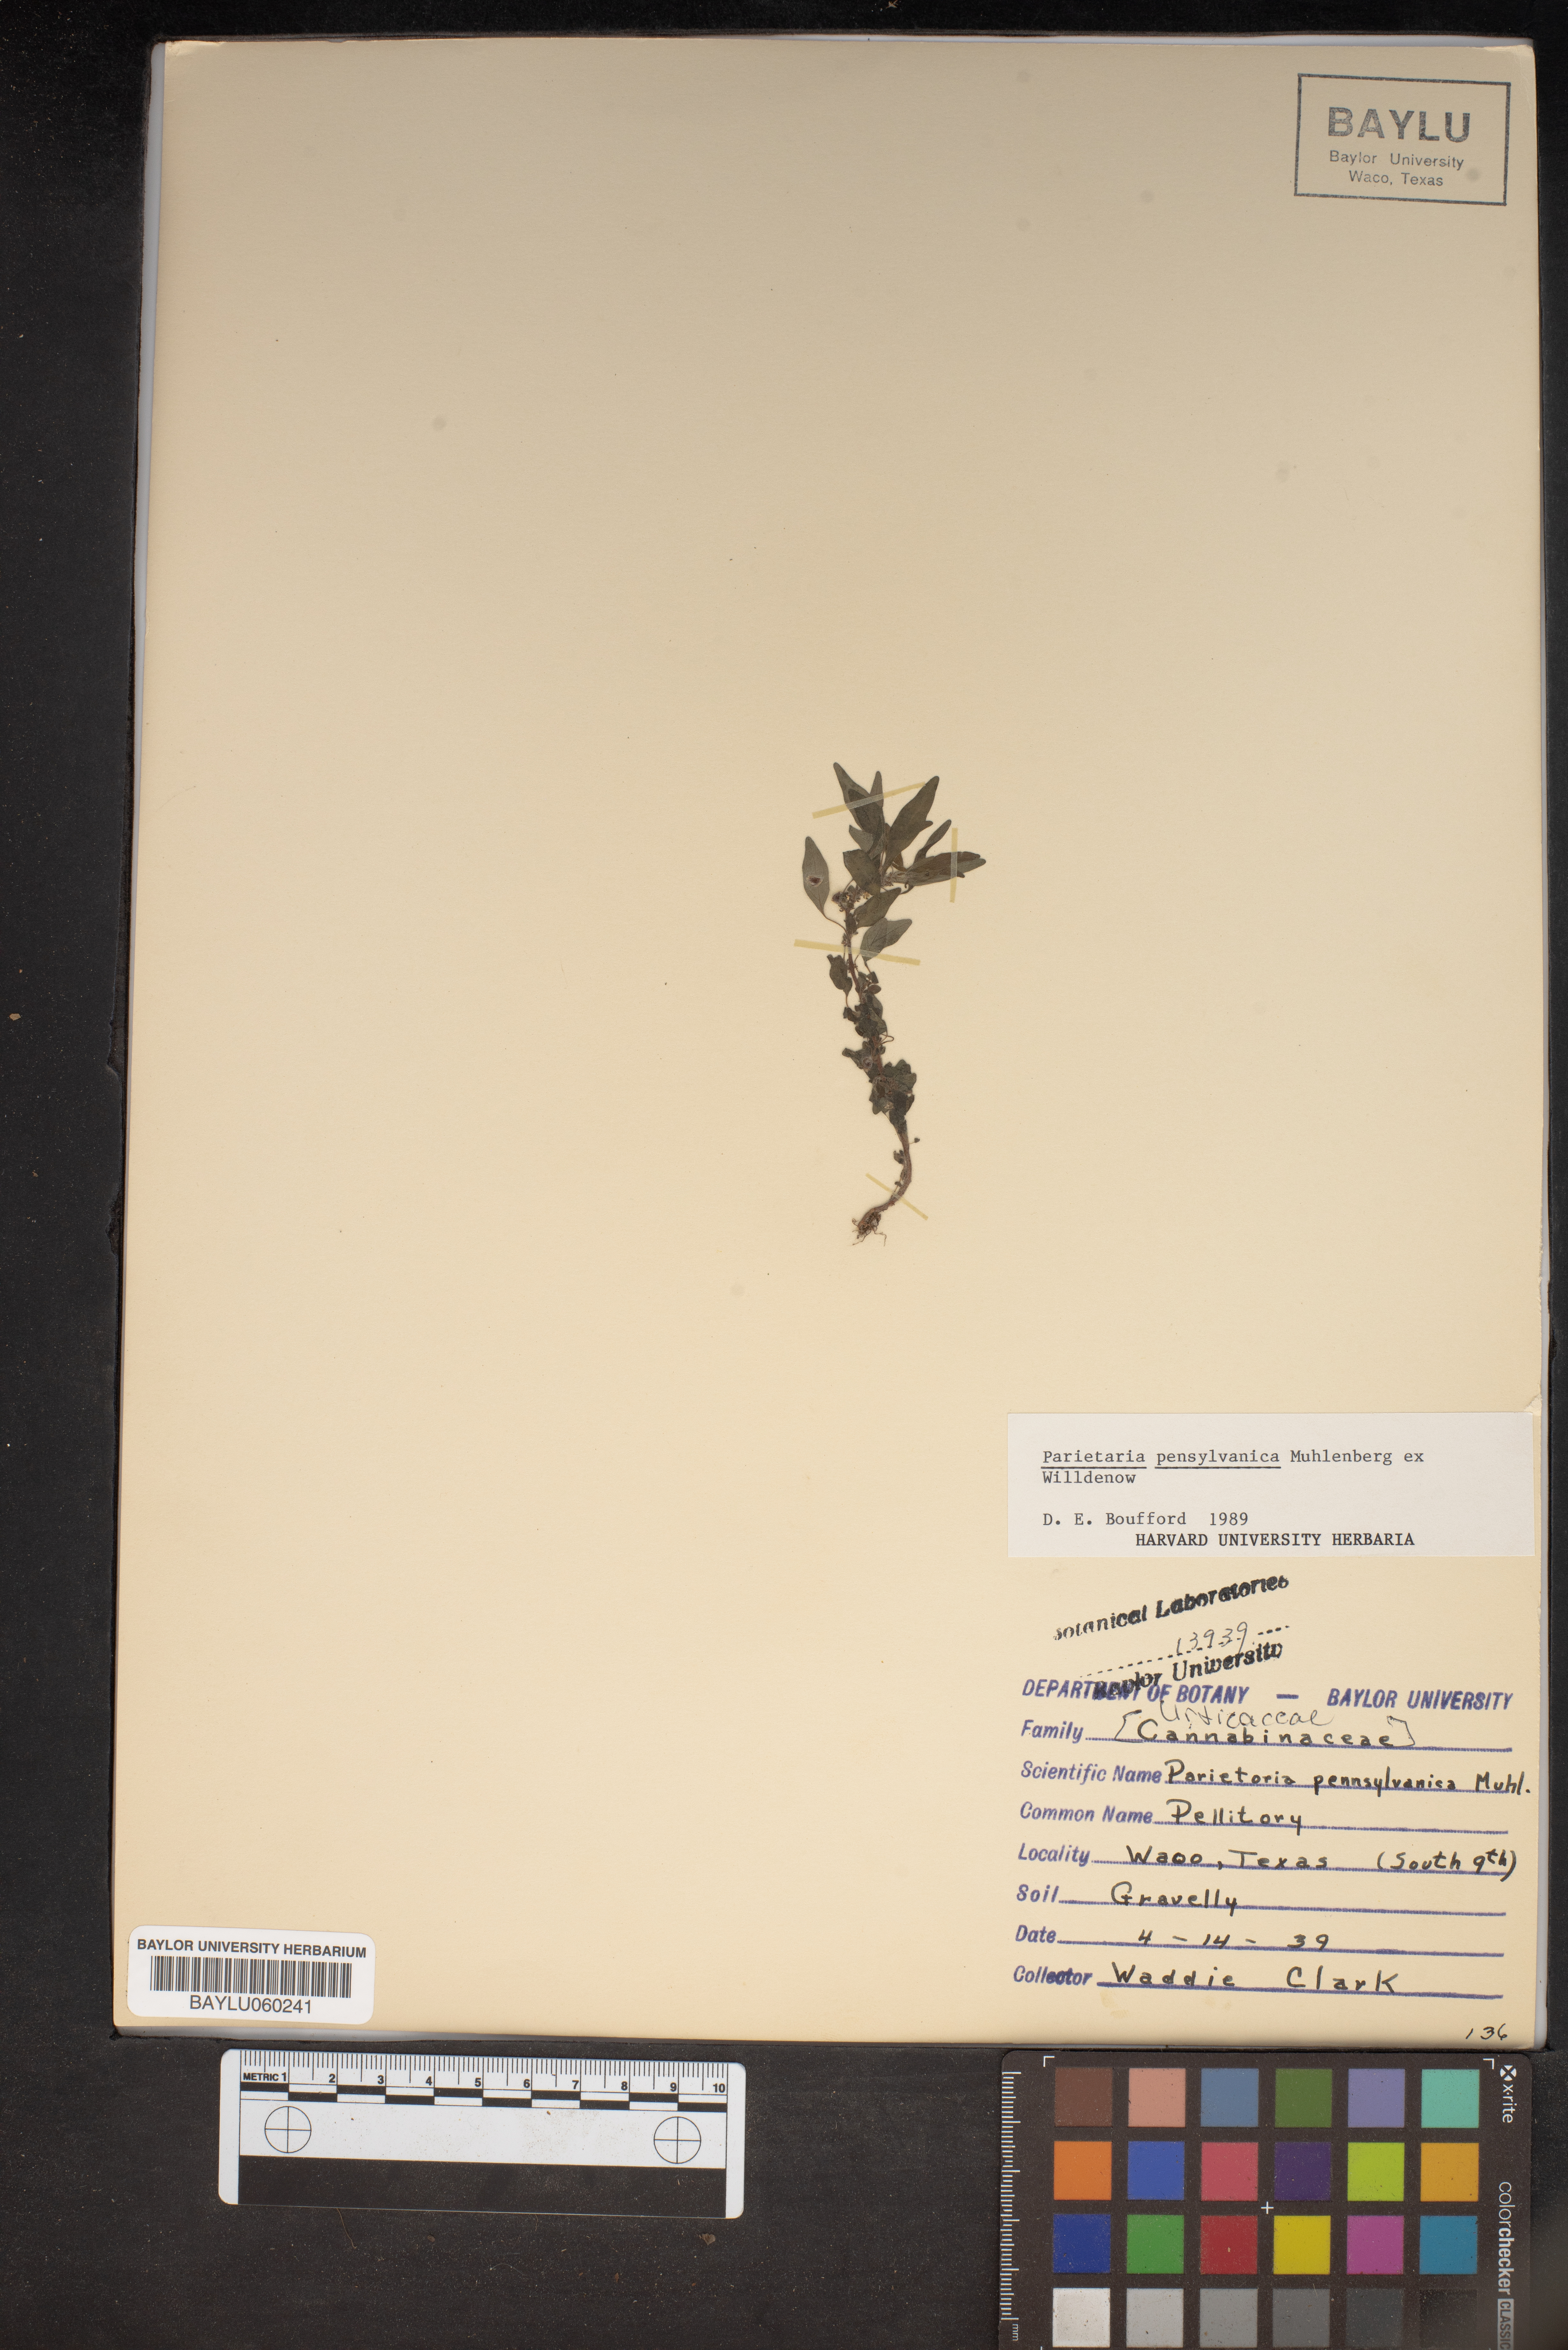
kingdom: Plantae
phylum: Tracheophyta
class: Magnoliopsida
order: Rosales
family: Urticaceae
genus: Parietaria
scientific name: Parietaria pensylvanica
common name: Pennsylvania pellitory
